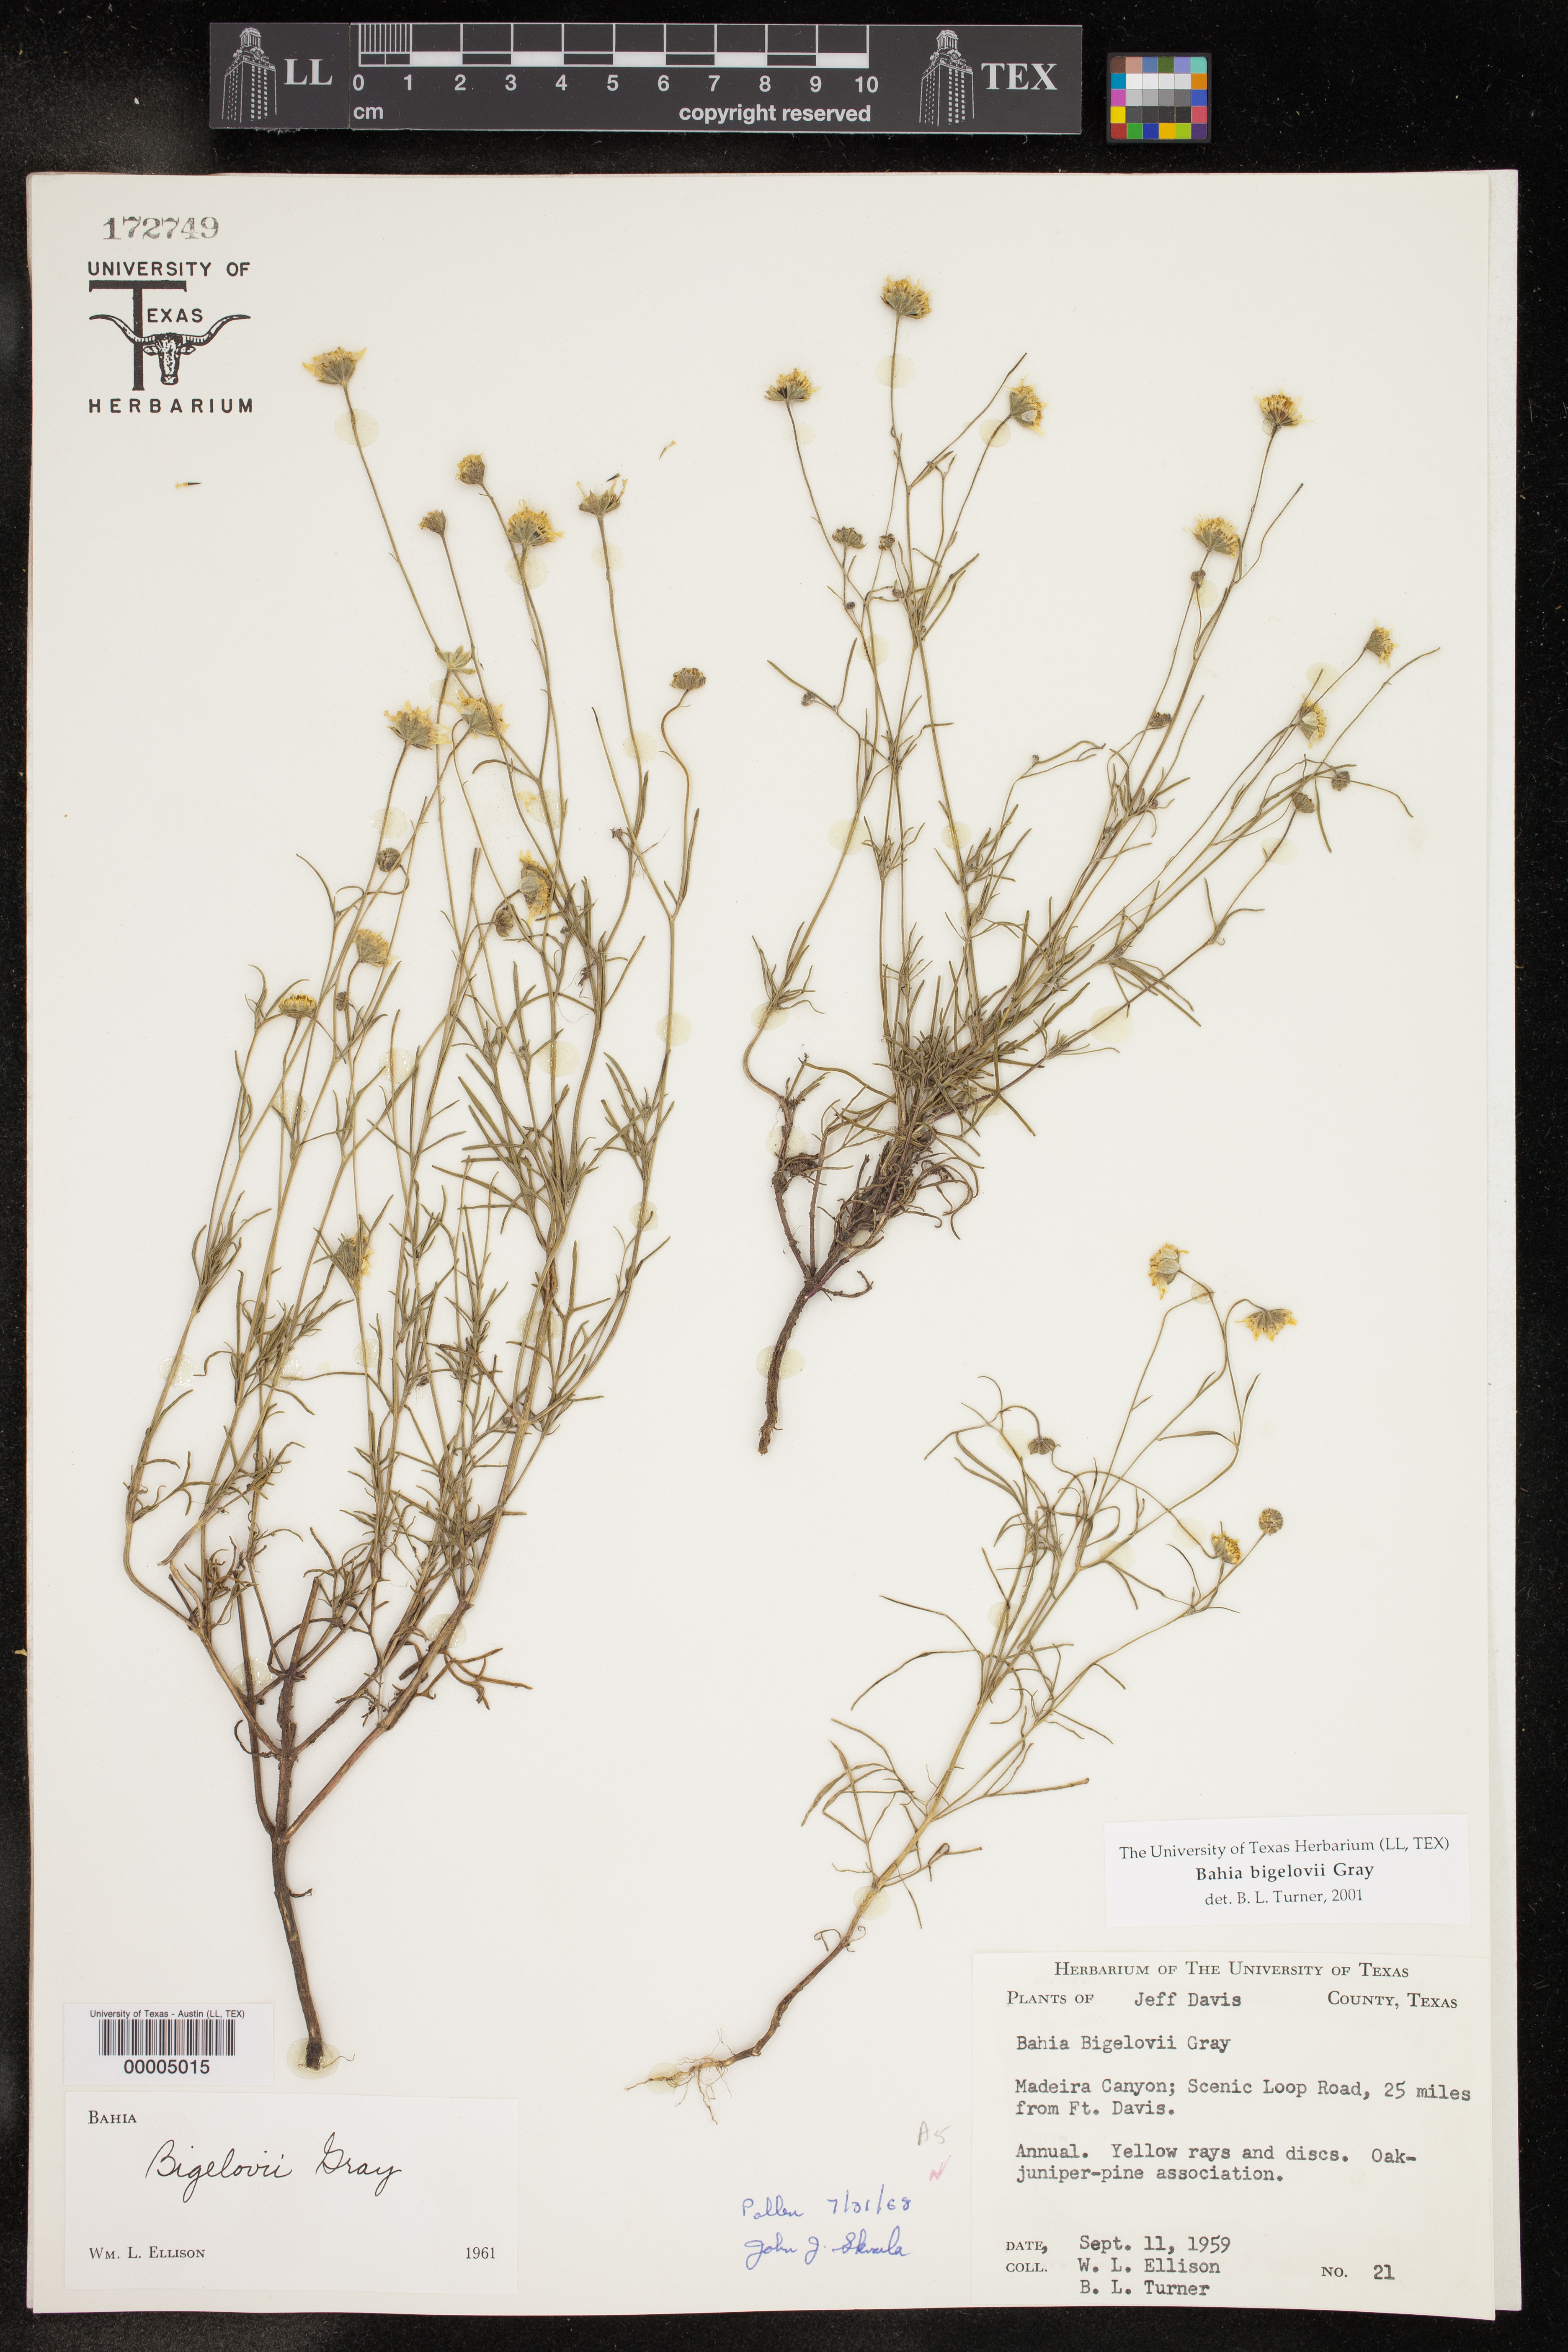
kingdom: Plantae
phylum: Tracheophyta
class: Magnoliopsida
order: Asterales
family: Asteraceae
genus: Picradeniopsis
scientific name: Picradeniopsis bigelovii
